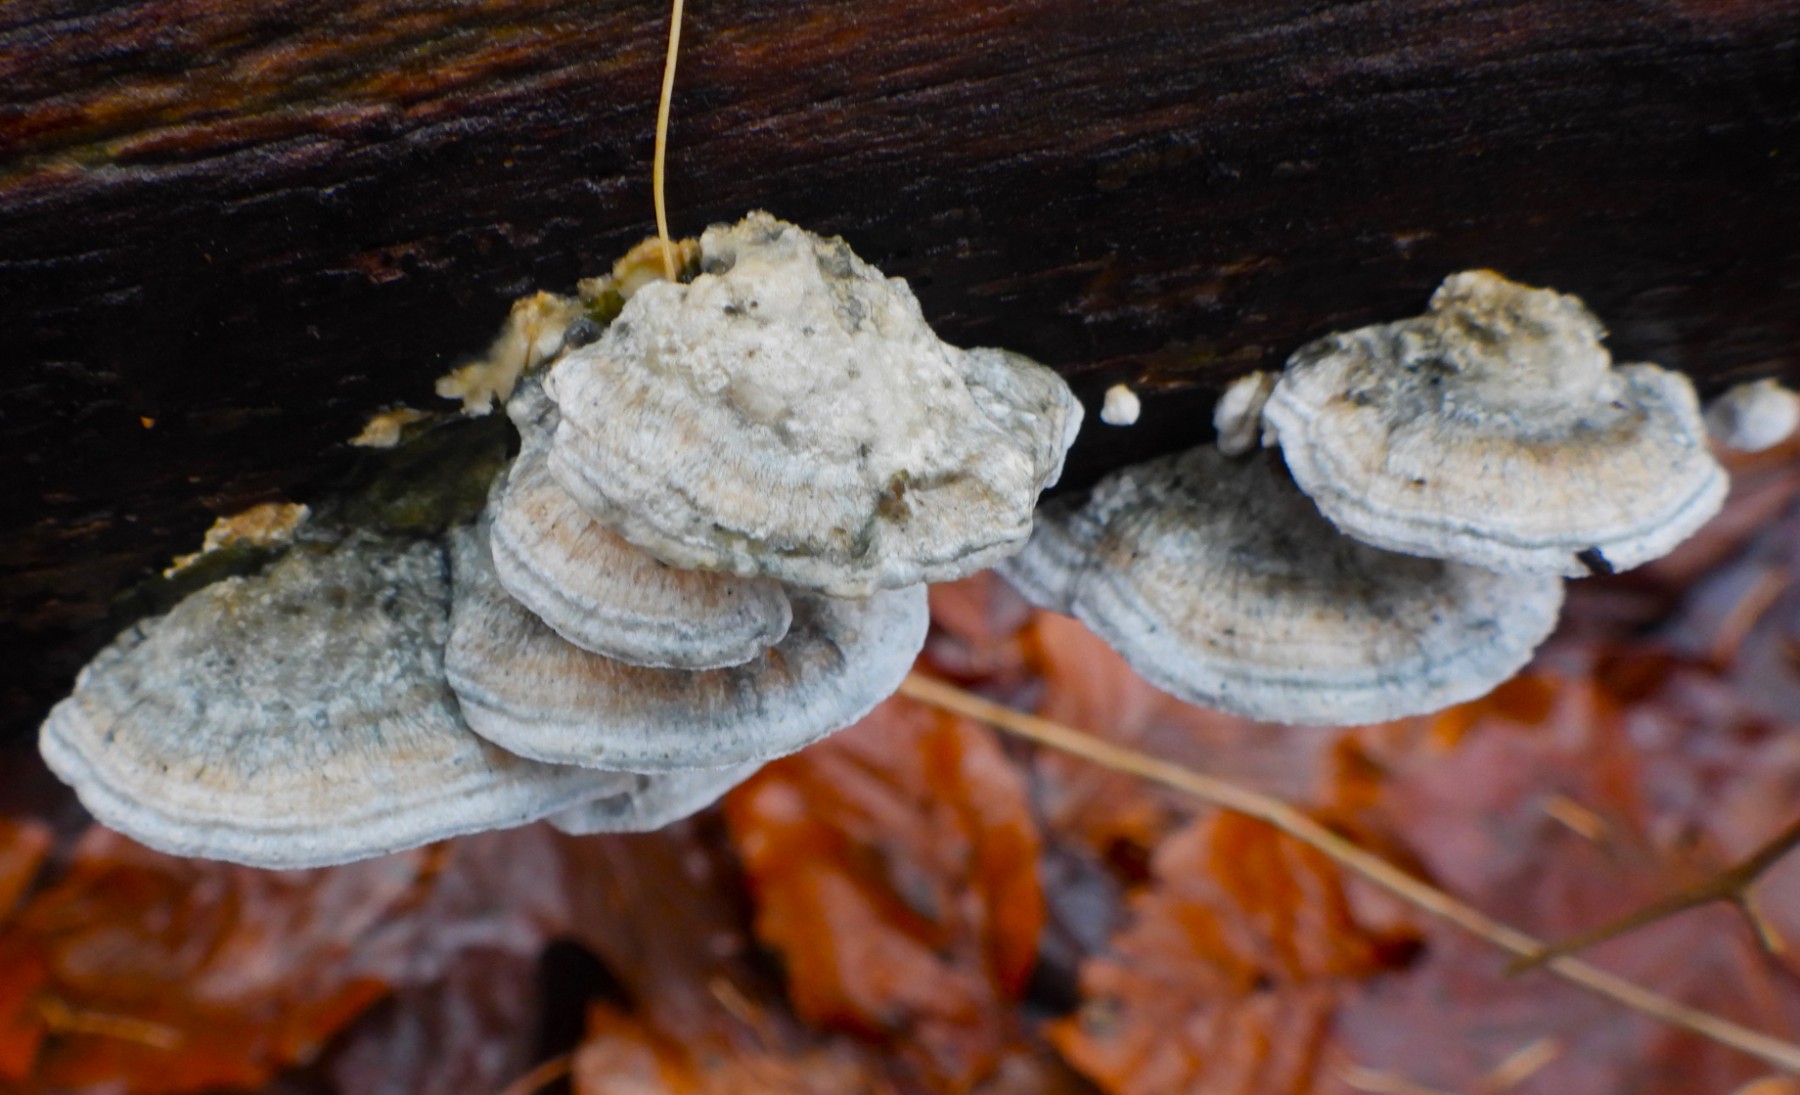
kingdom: Fungi
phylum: Basidiomycota
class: Agaricomycetes
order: Polyporales
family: Polyporaceae
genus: Cyanosporus
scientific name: Cyanosporus alni
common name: blegblå kødporesvamp
